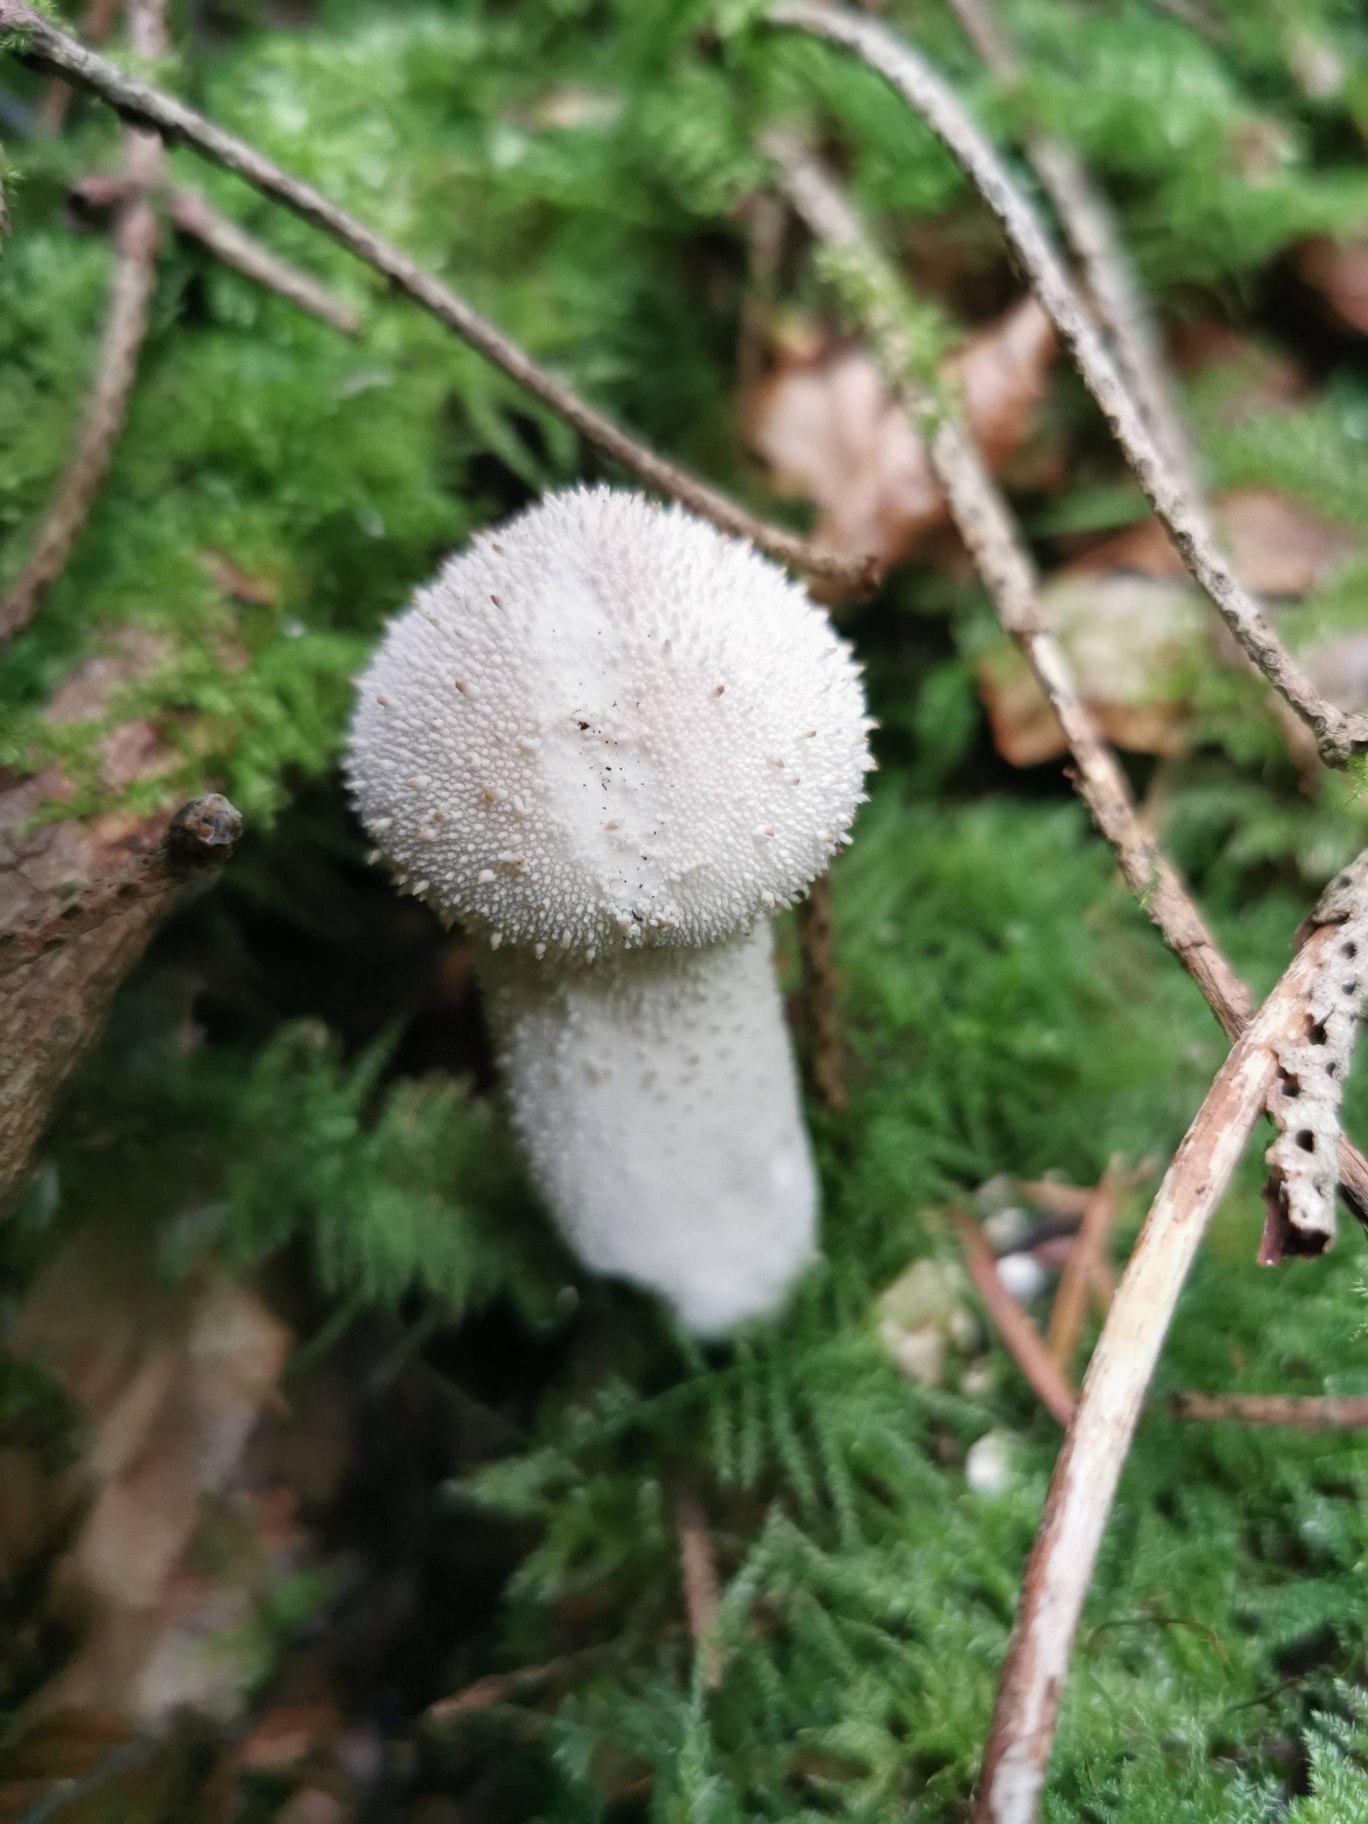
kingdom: Fungi
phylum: Basidiomycota
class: Agaricomycetes
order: Agaricales
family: Lycoperdaceae
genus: Lycoperdon
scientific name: Lycoperdon perlatum
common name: Krystal-støvbold
